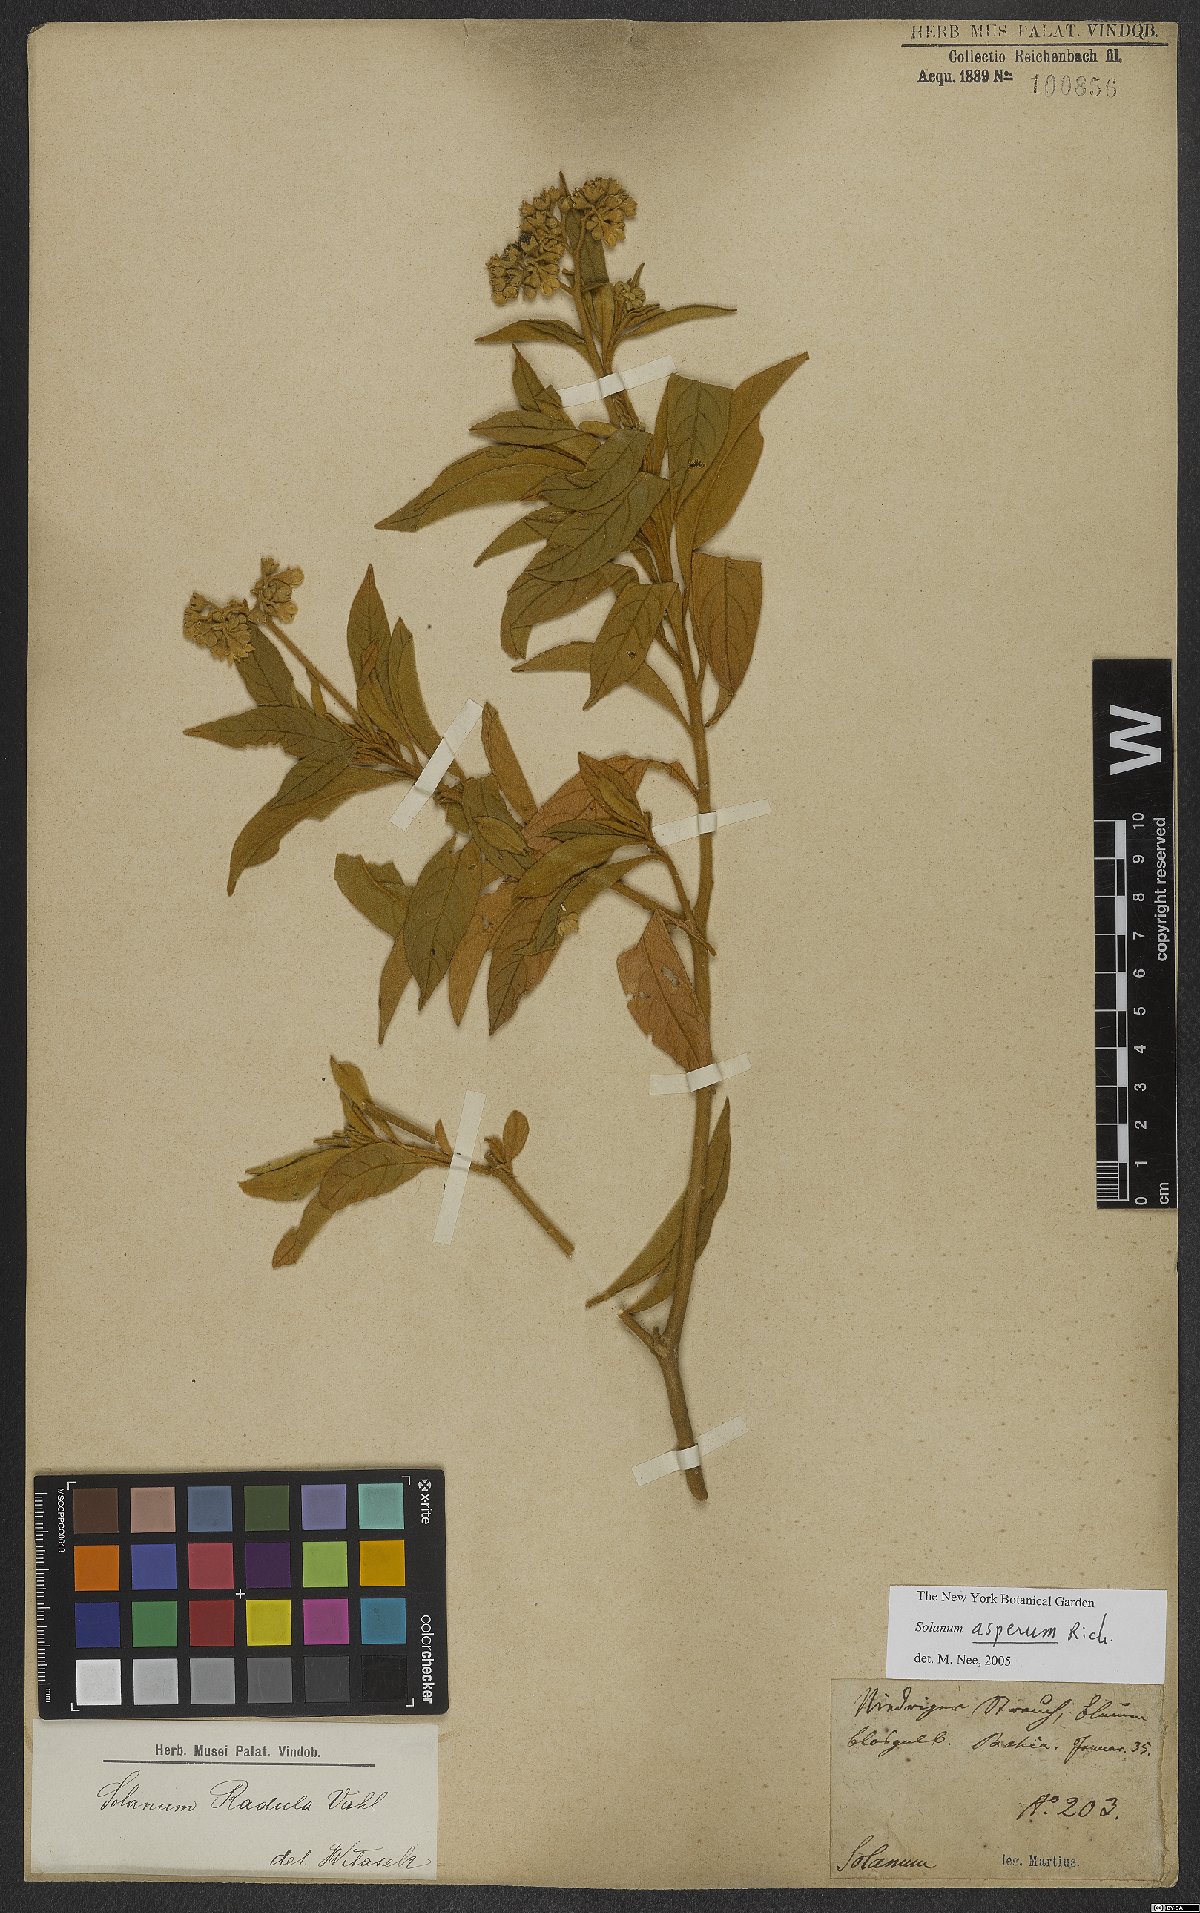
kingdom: Plantae
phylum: Tracheophyta
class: Magnoliopsida
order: Solanales
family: Solanaceae
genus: Solanum
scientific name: Solanum asperum
